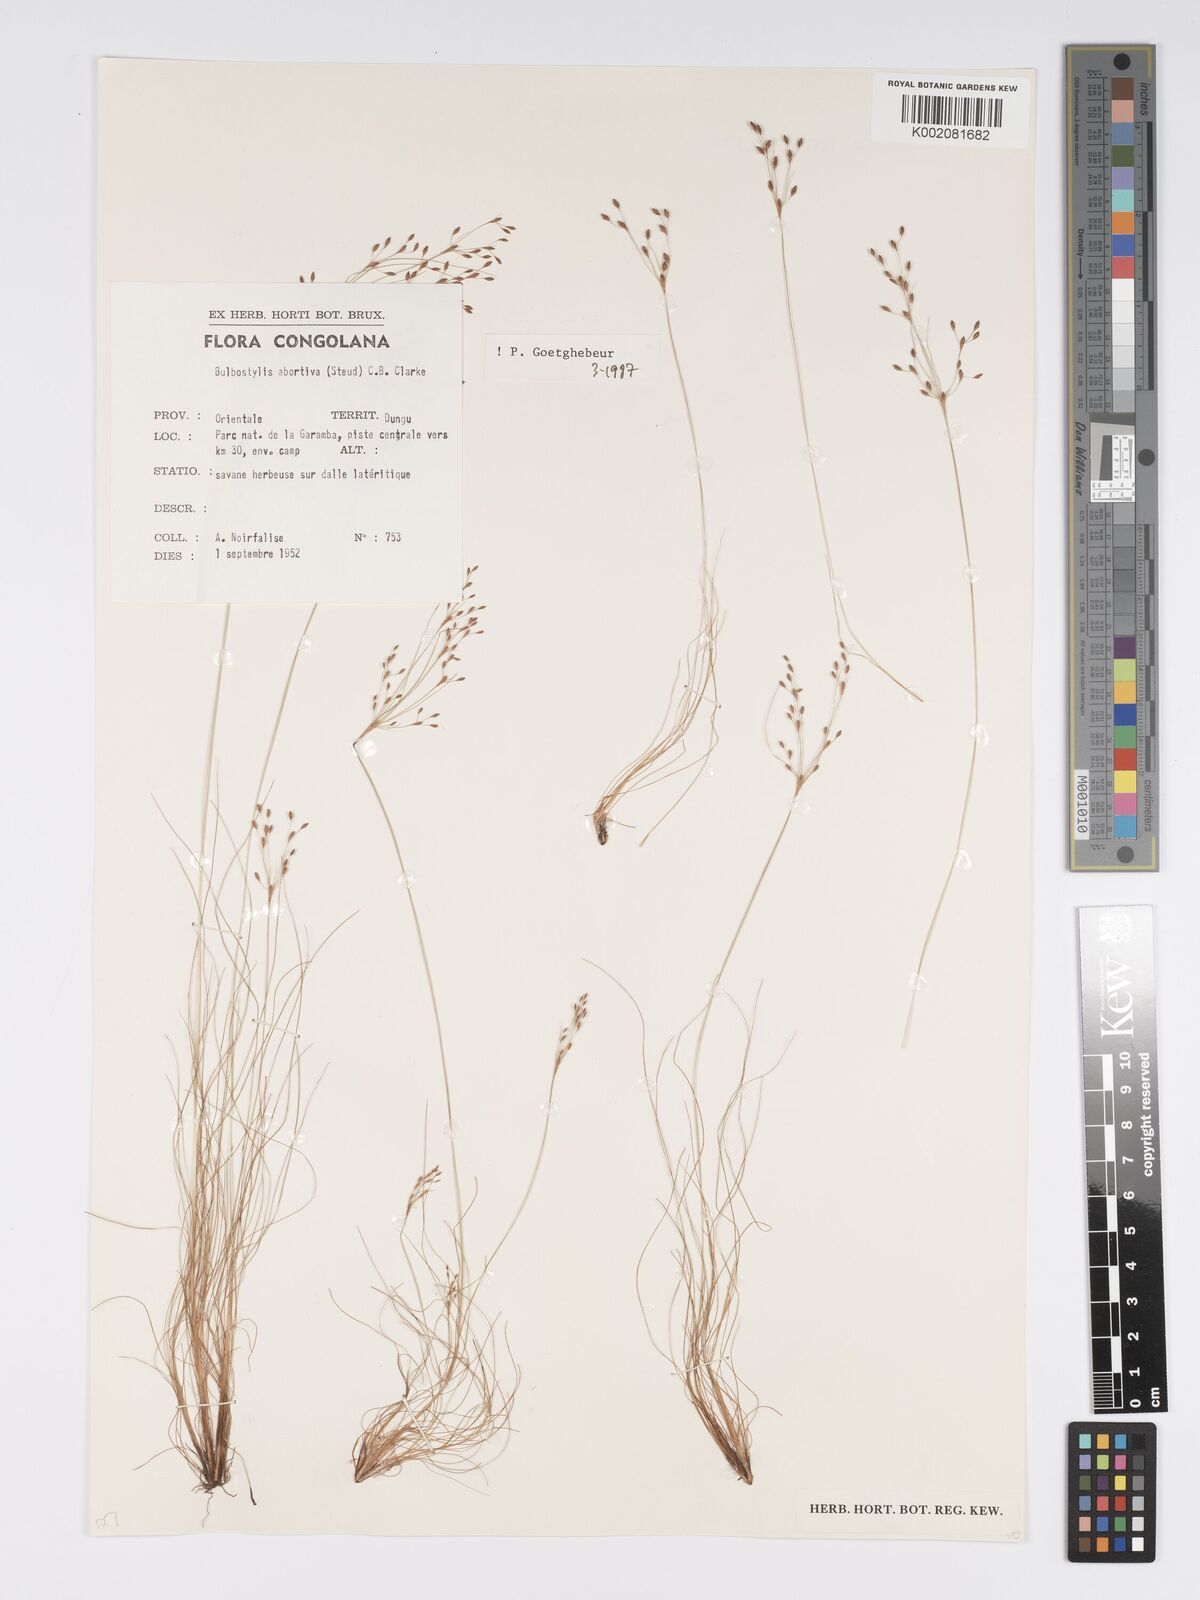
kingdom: Plantae
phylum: Tracheophyta
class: Liliopsida
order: Poales
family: Cyperaceae
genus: Bulbostylis
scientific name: Bulbostylis abortiva
